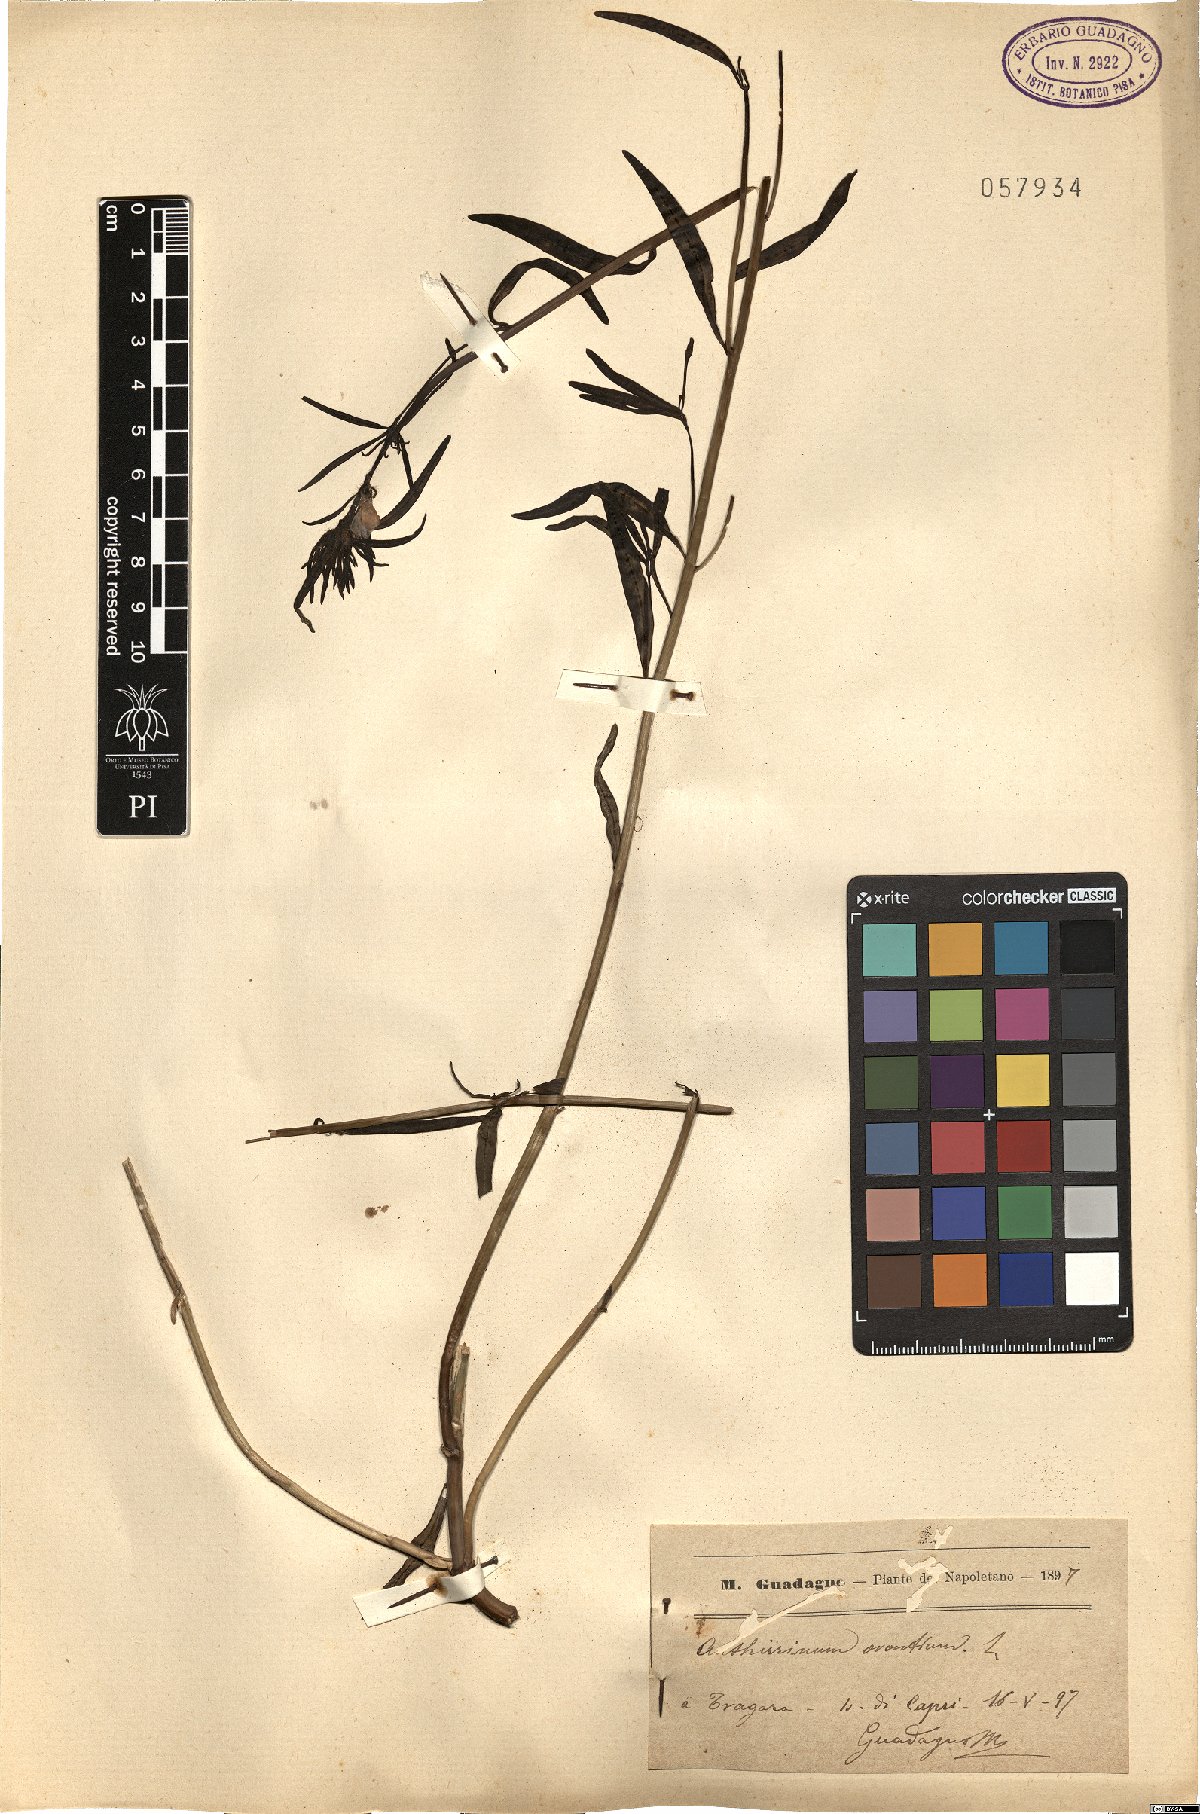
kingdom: Plantae
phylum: Tracheophyta
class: Magnoliopsida
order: Lamiales
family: Plantaginaceae
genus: Misopates
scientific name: Misopates orontium
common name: Weasel's-snout
